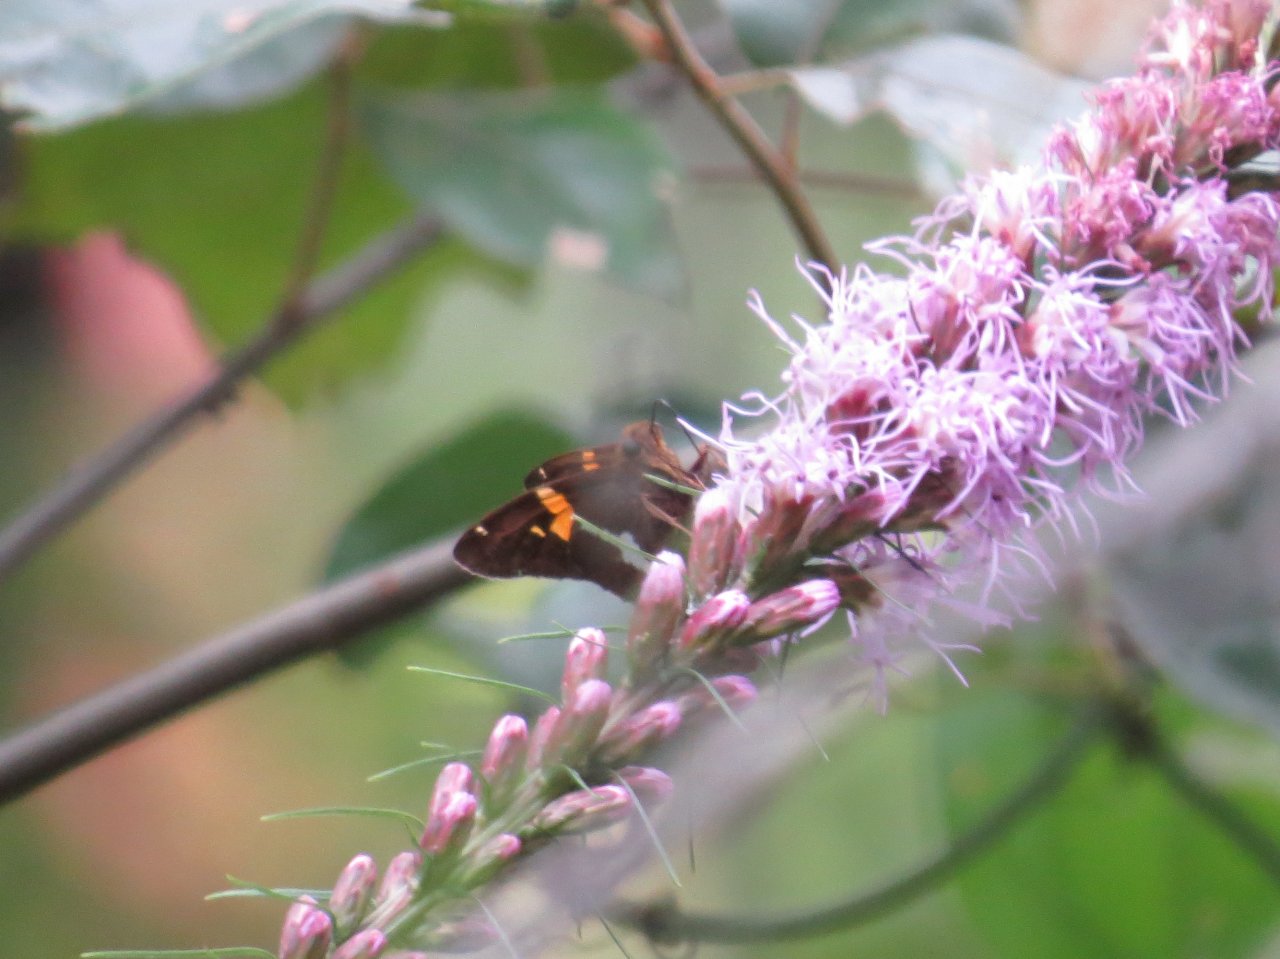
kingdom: Animalia
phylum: Arthropoda
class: Insecta
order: Lepidoptera
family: Hesperiidae
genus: Epargyreus
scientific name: Epargyreus clarus
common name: Silver-spotted Skipper
